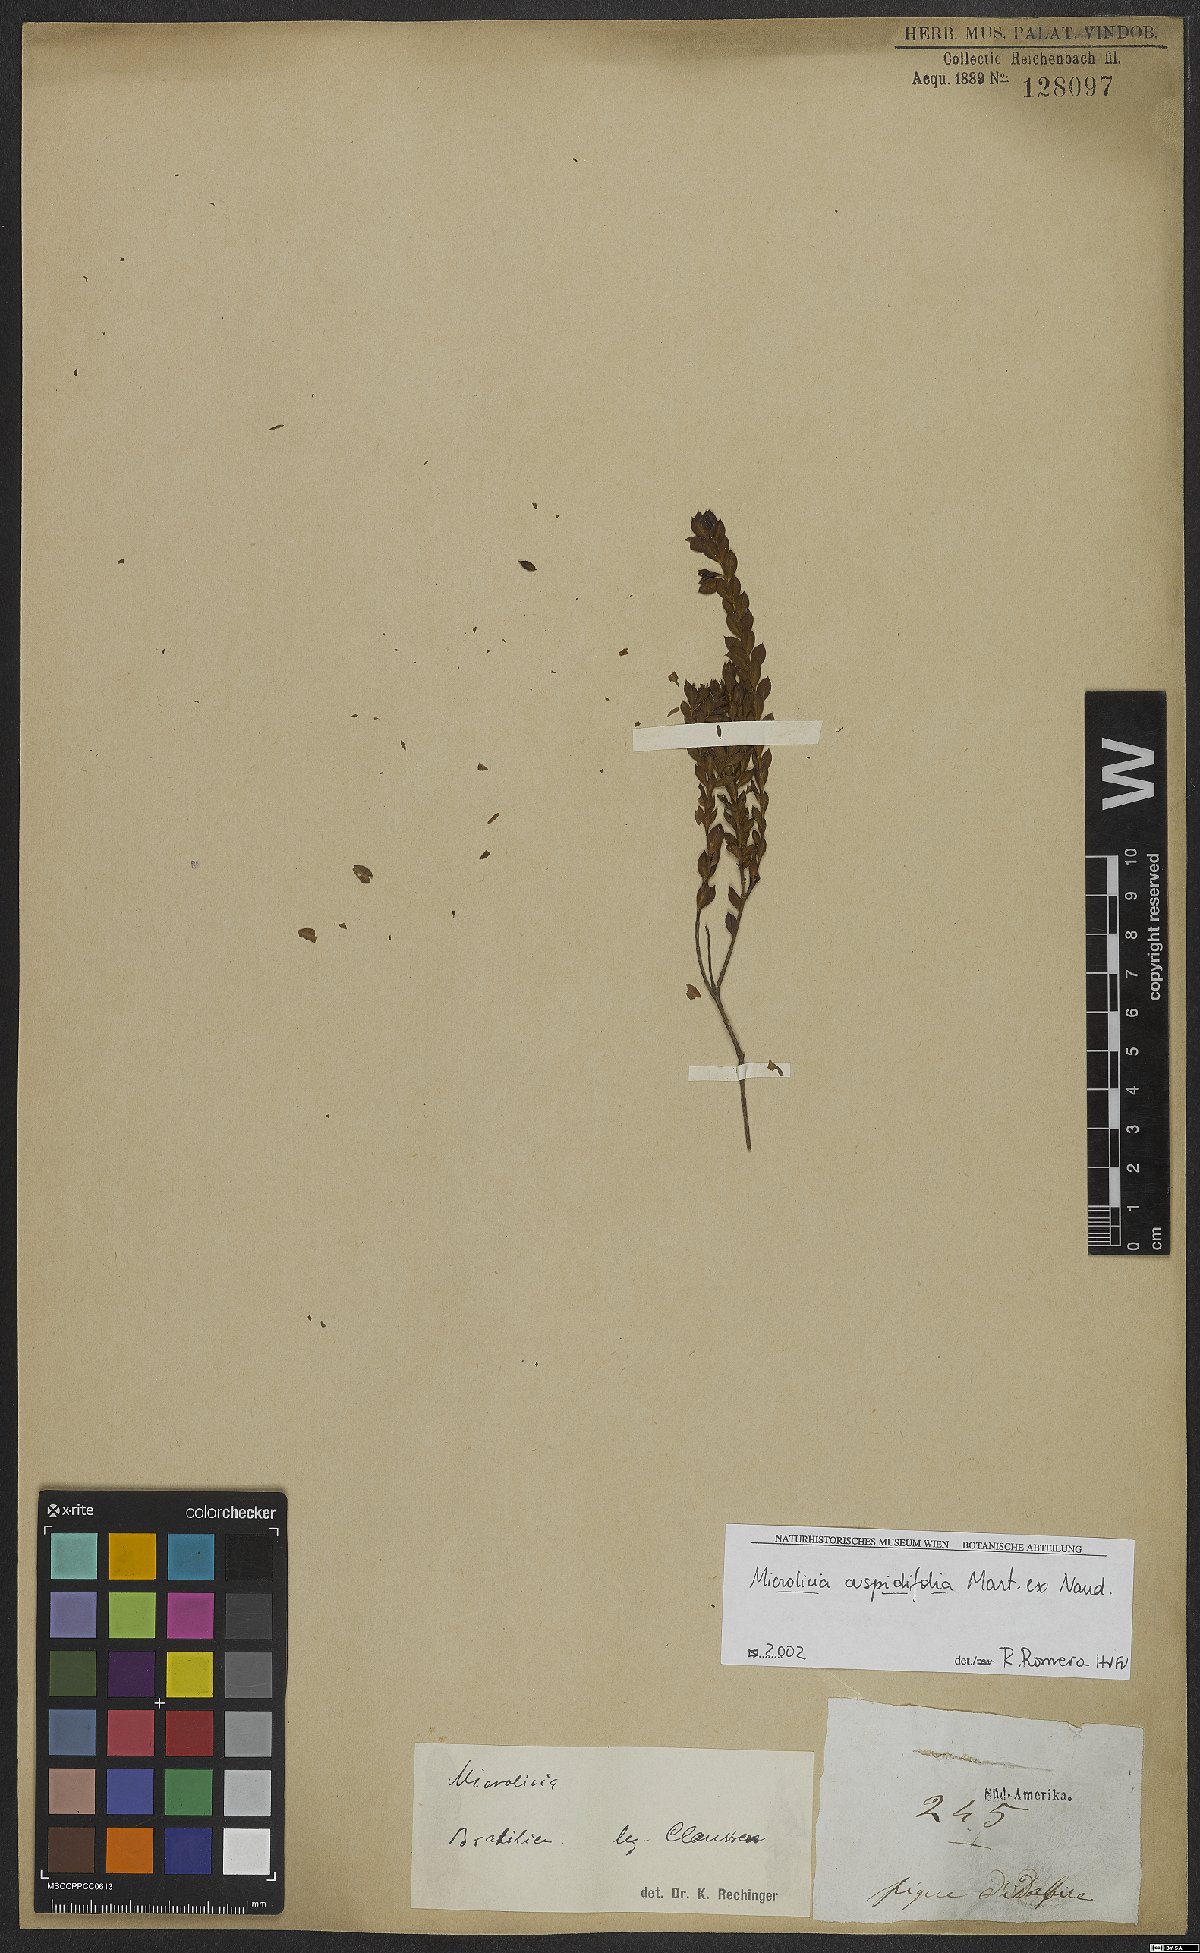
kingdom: Plantae
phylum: Tracheophyta
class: Magnoliopsida
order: Myrtales
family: Melastomataceae
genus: Microlicia
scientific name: Microlicia cuspidifolia
